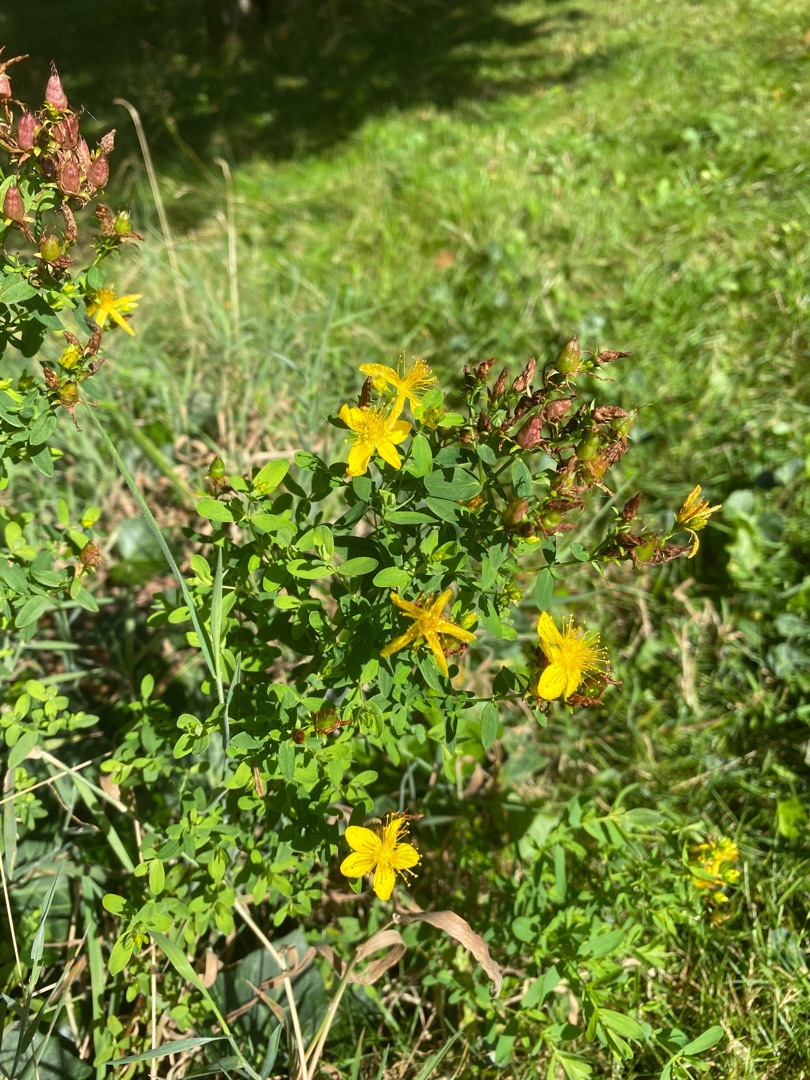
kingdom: Plantae
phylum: Tracheophyta
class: Magnoliopsida
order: Malpighiales
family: Hypericaceae
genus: Hypericum
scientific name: Hypericum perforatum
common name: Prikbladet perikon
